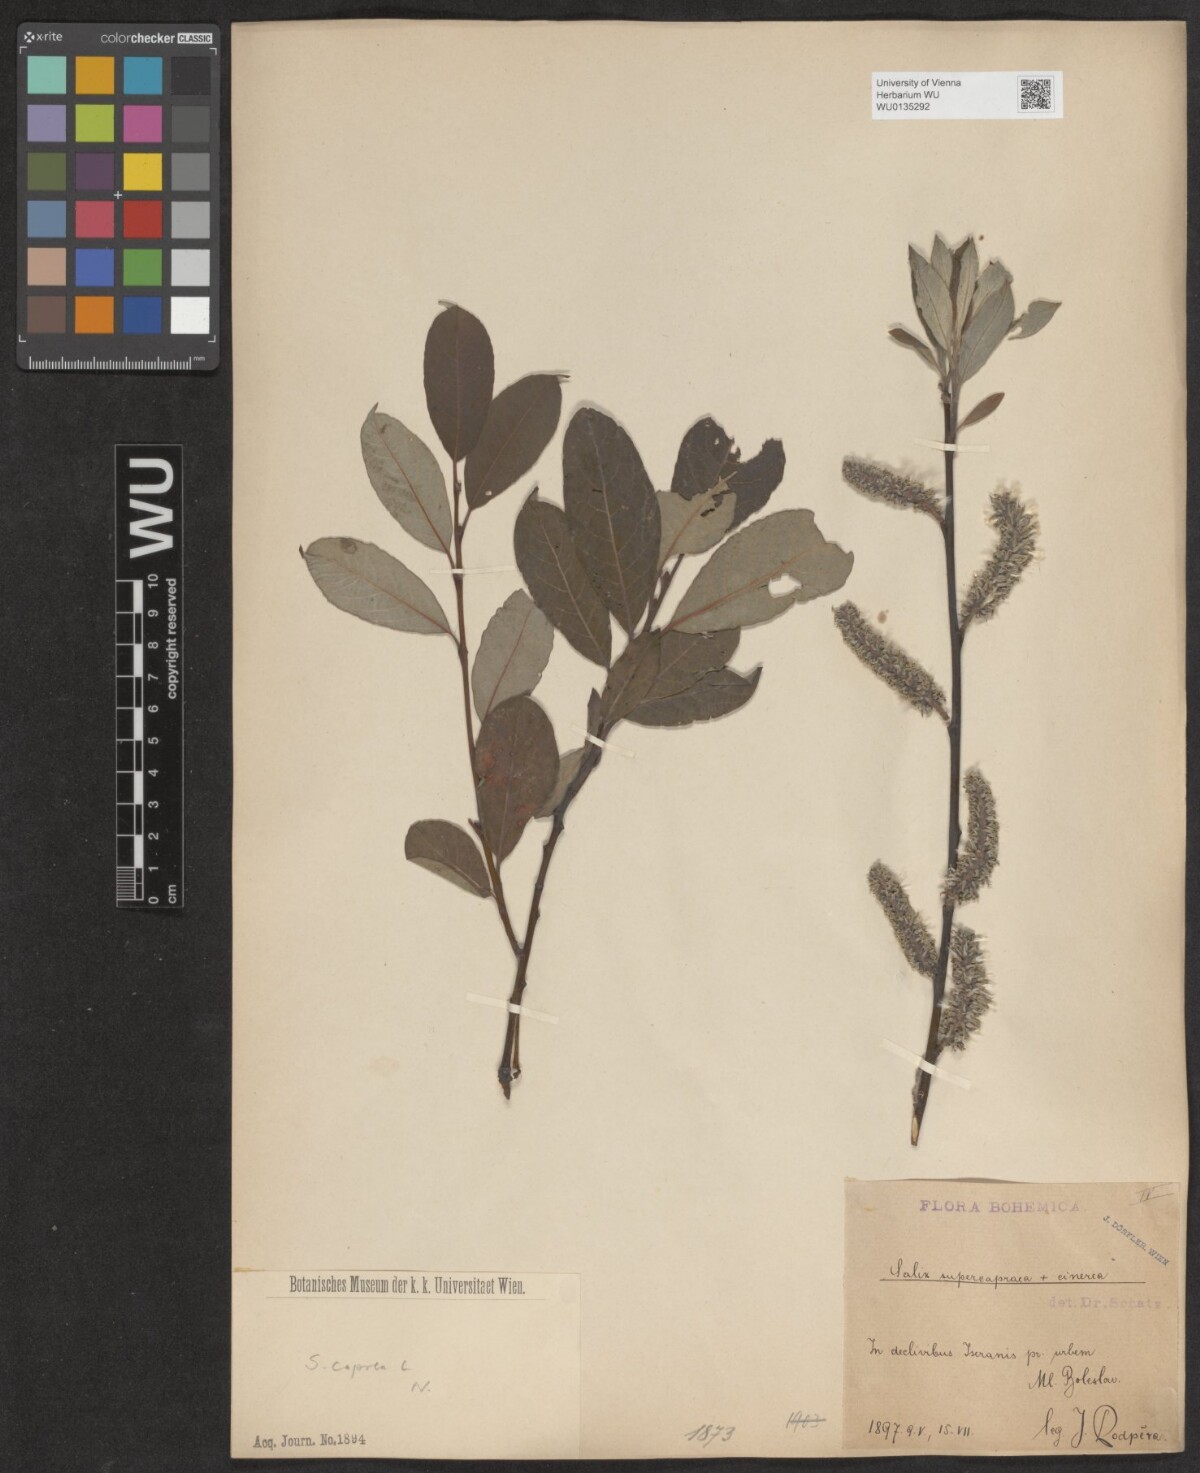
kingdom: Plantae
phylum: Tracheophyta
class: Magnoliopsida
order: Malpighiales
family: Salicaceae
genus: Salix
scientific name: Salix caprea
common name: Goat willow
